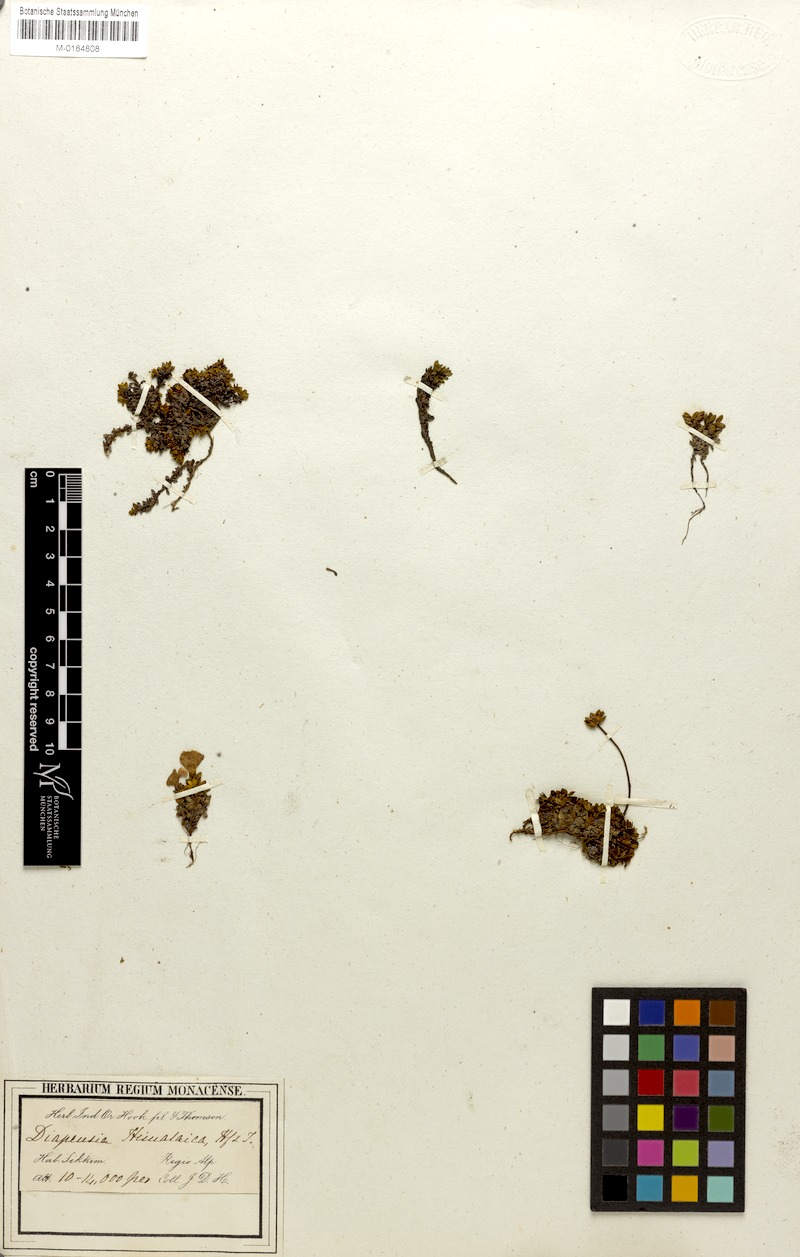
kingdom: Plantae
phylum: Tracheophyta
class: Magnoliopsida
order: Ericales
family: Diapensiaceae
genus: Diapensia
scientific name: Diapensia himalaica
